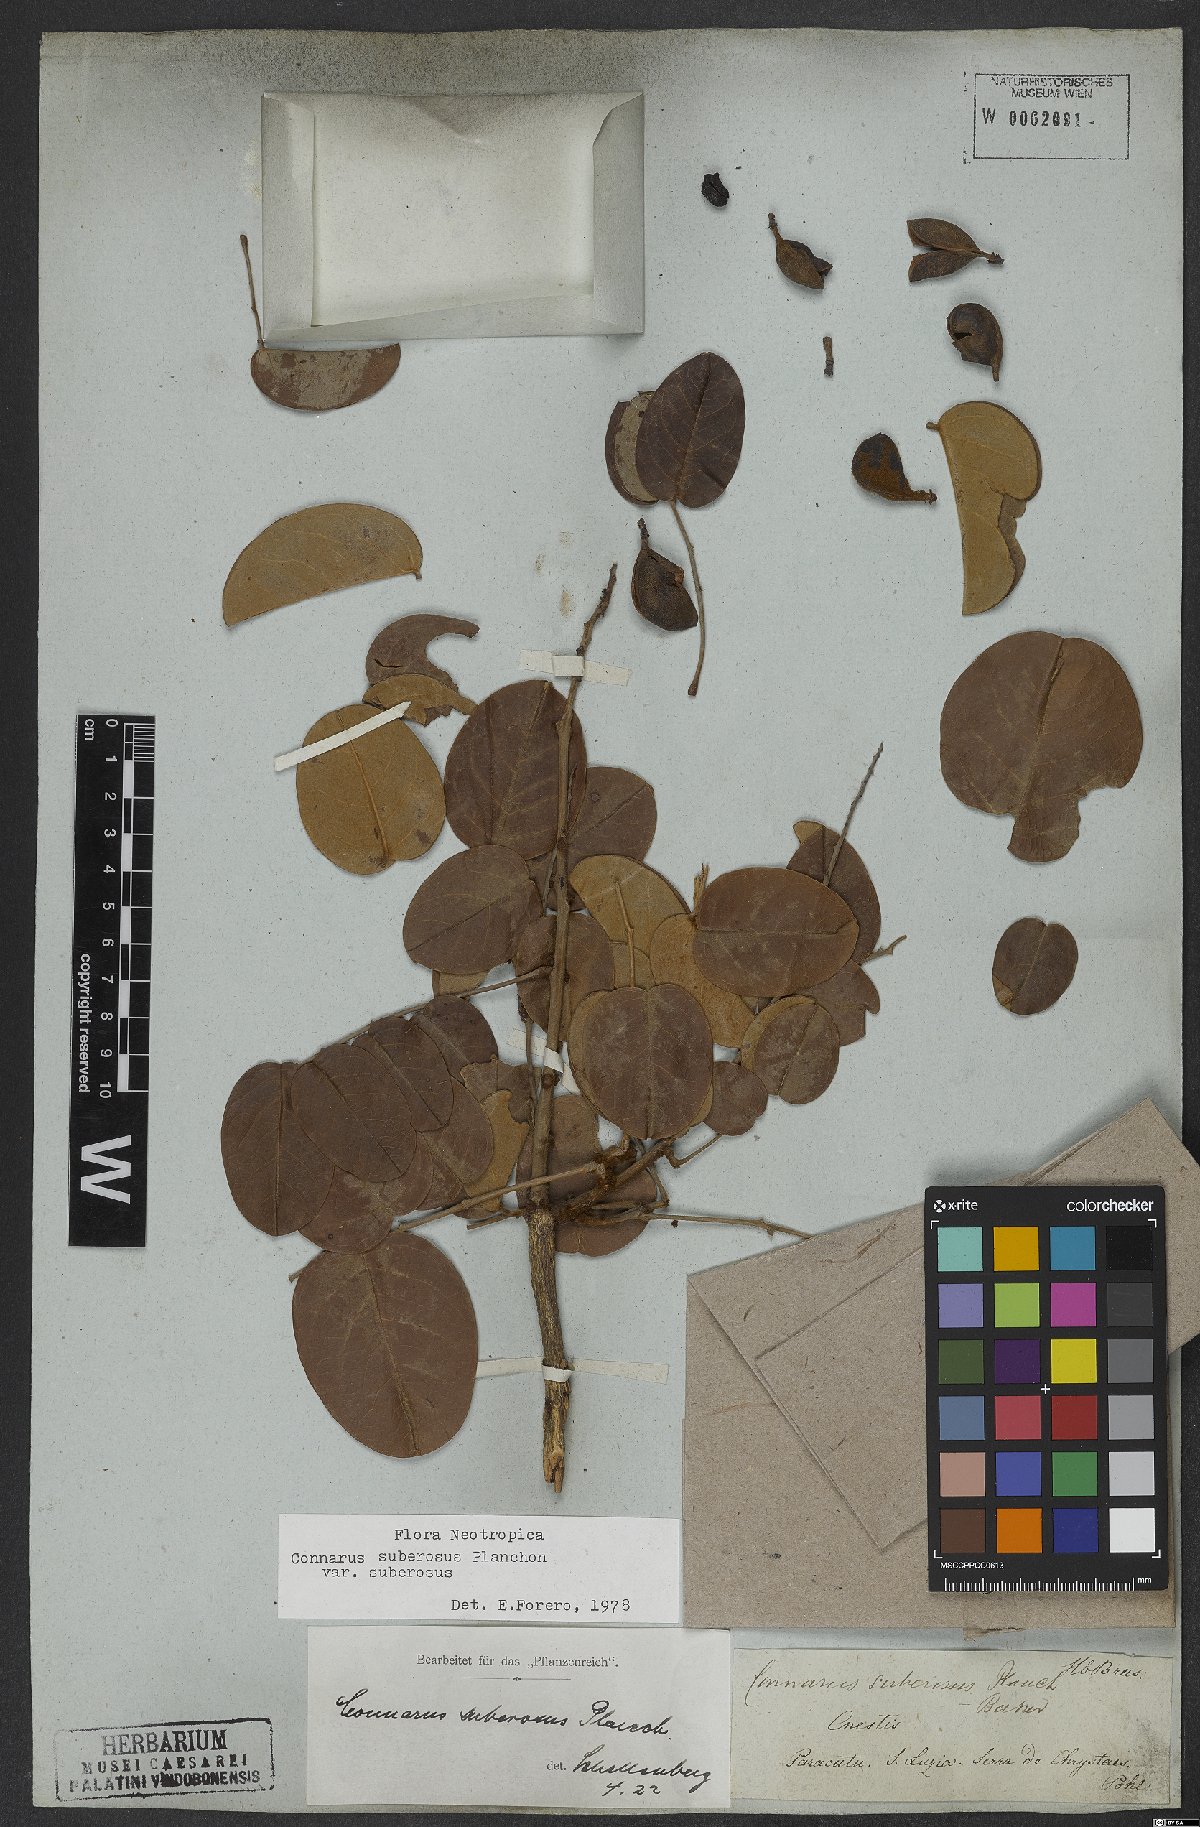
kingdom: Plantae
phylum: Tracheophyta
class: Magnoliopsida
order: Oxalidales
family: Connaraceae
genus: Connarus
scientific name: Connarus suberosus
